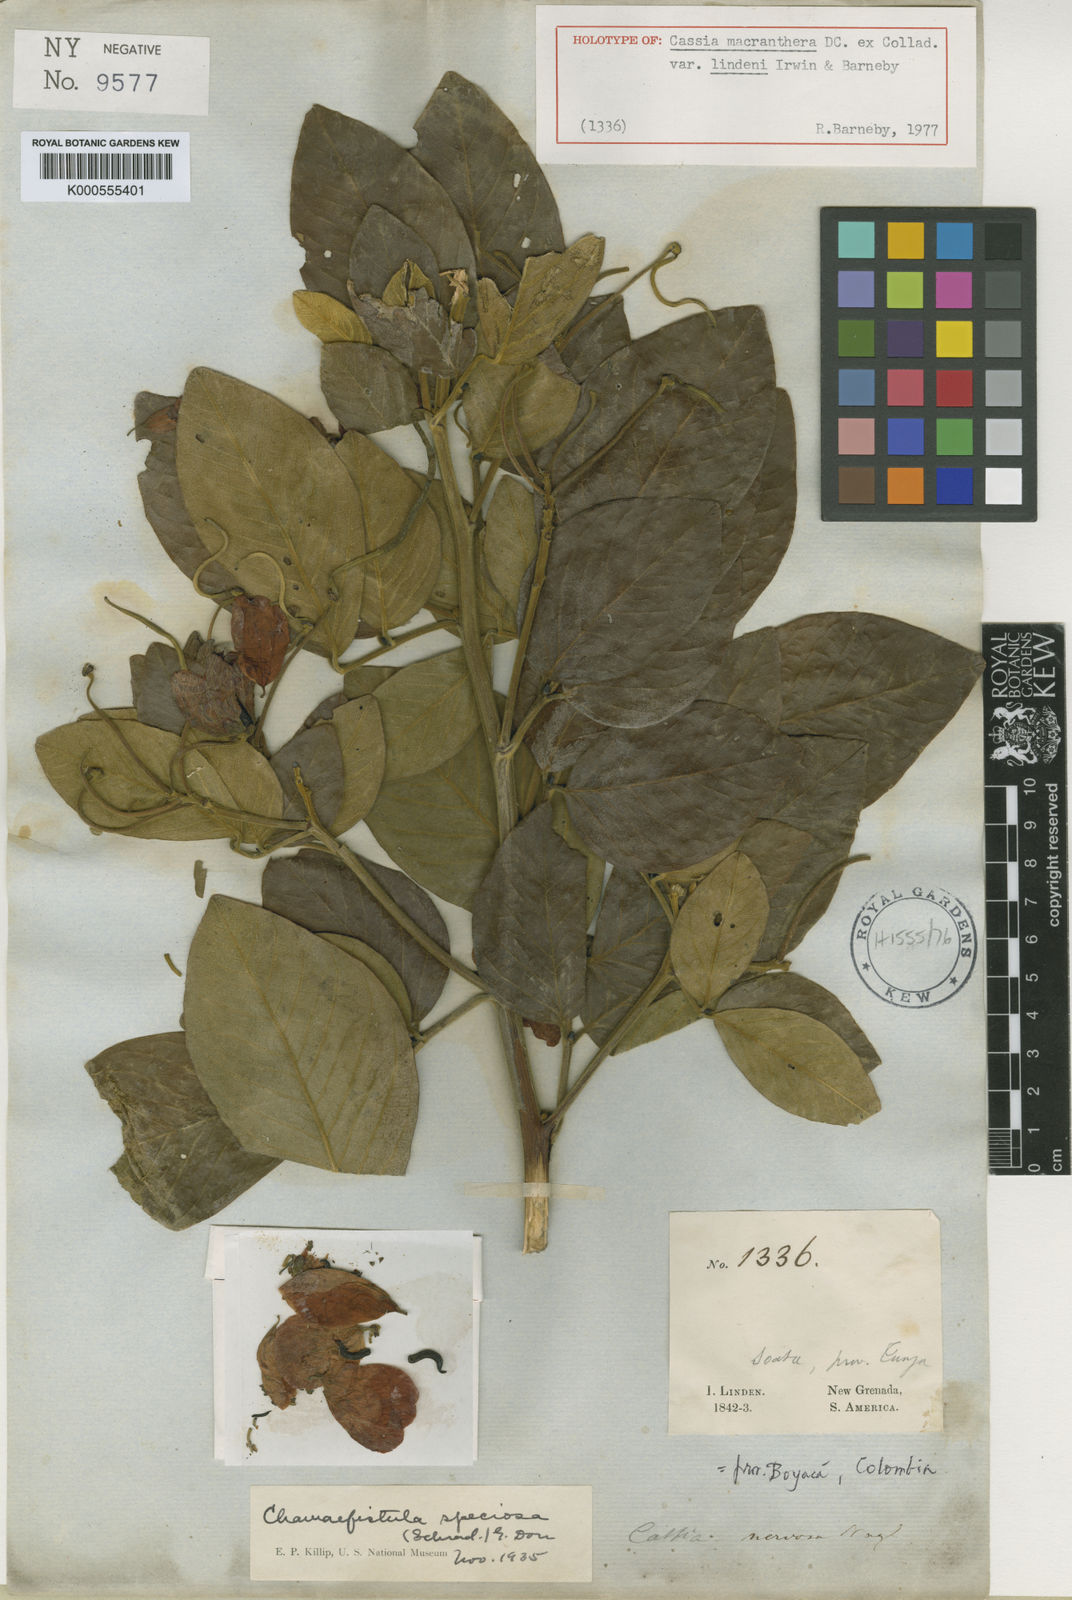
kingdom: Plantae
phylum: Tracheophyta
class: Magnoliopsida
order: Fabales
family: Fabaceae
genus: Senna
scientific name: Senna macranthera
